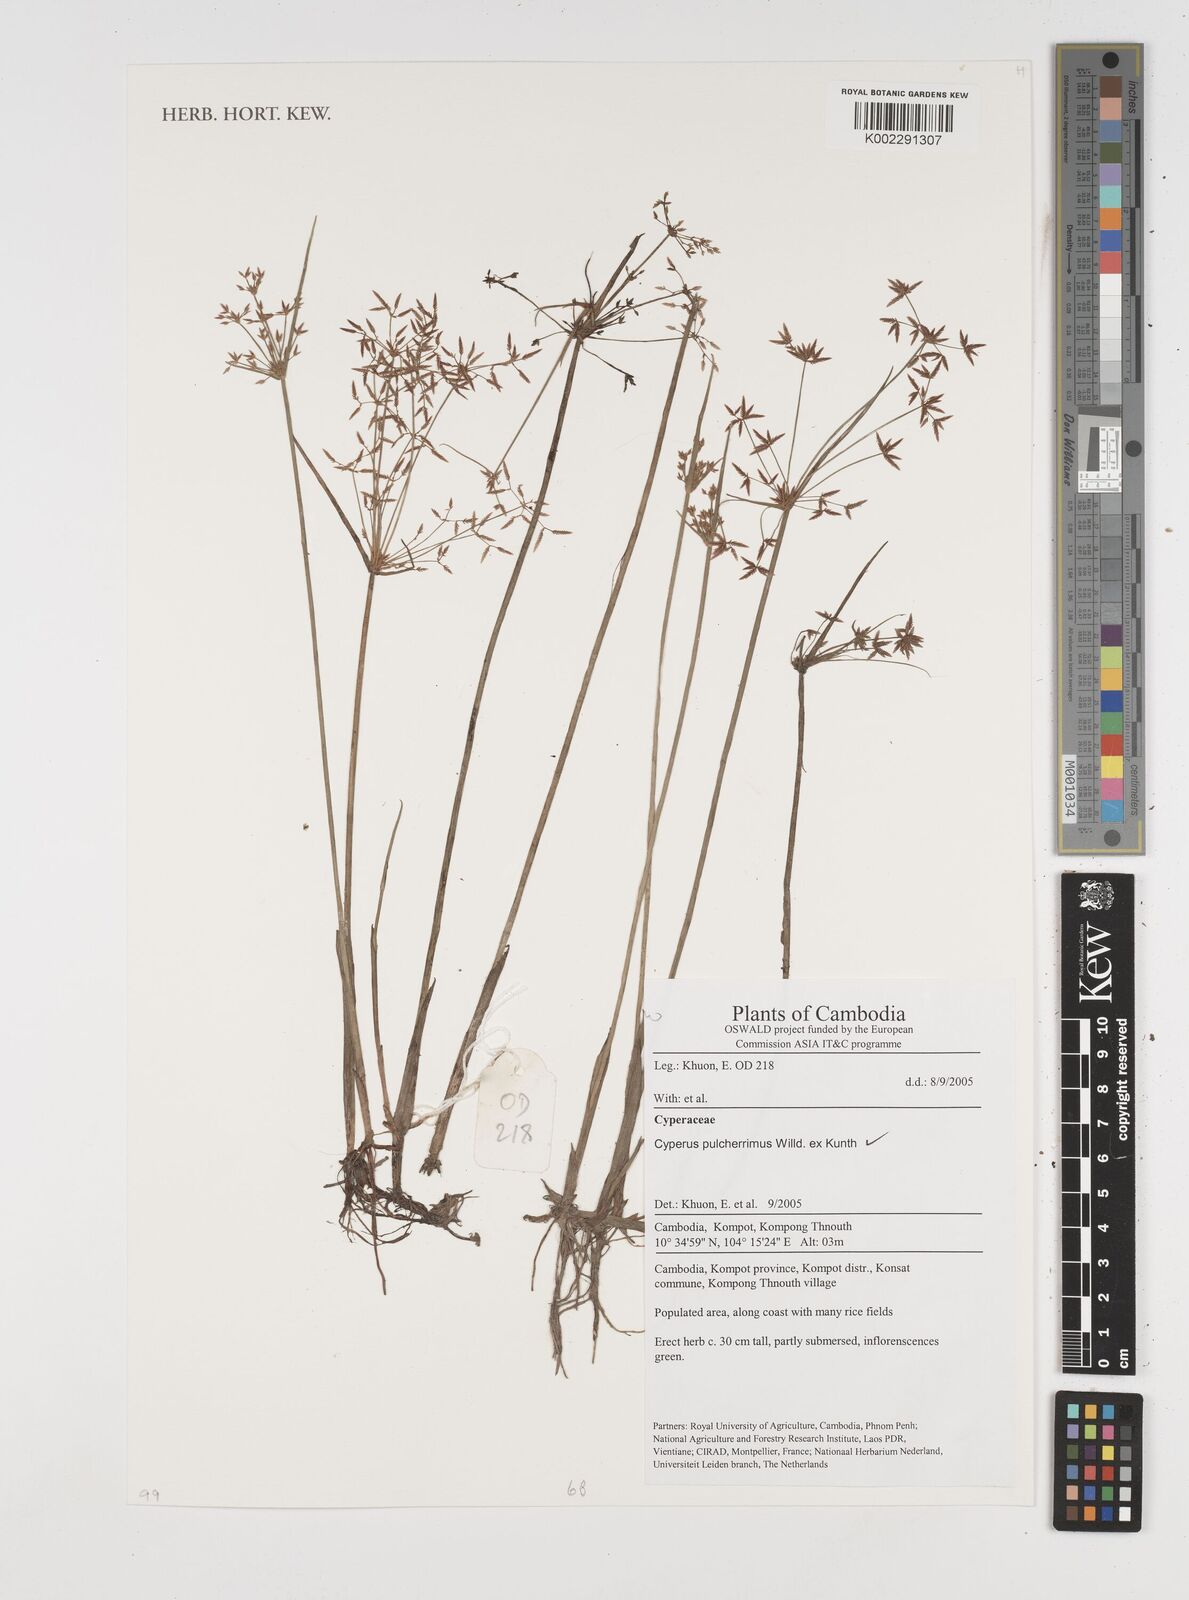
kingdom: Plantae
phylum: Tracheophyta
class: Liliopsida
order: Poales
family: Cyperaceae
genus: Cyperus
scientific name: Cyperus pulcherrimus
